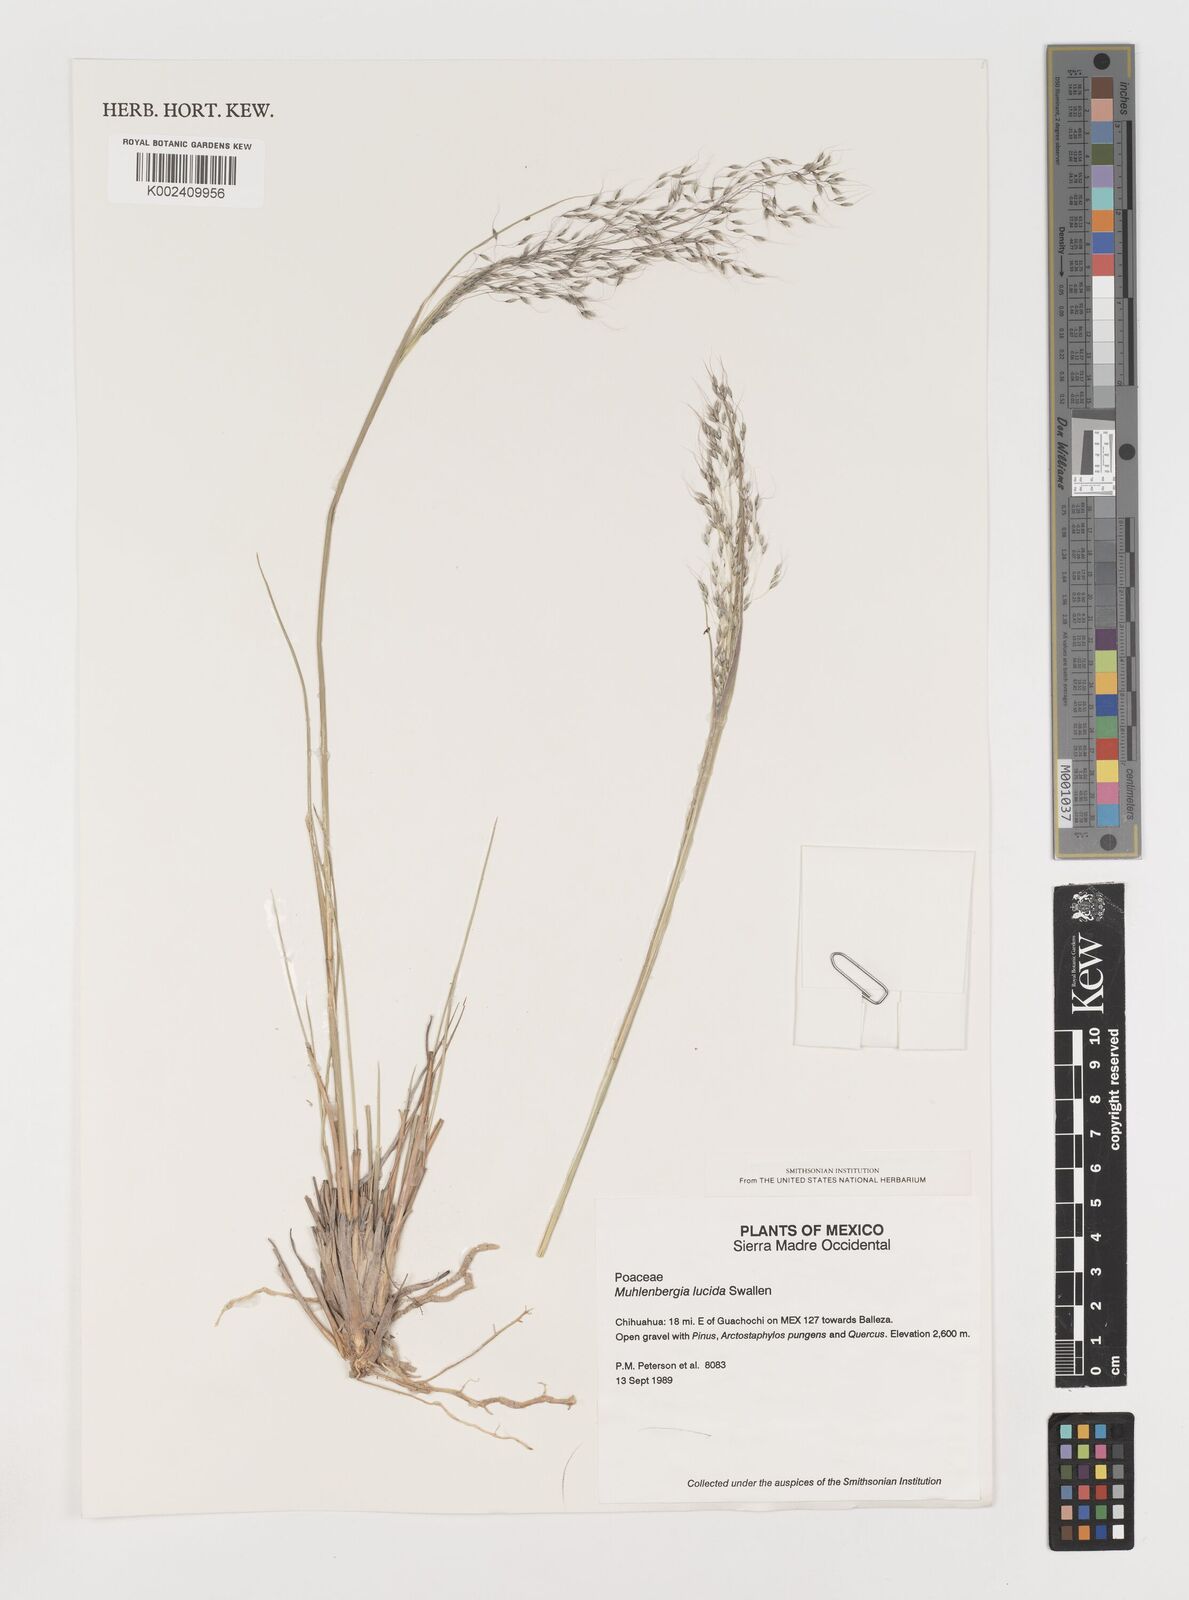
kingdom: Plantae
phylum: Tracheophyta
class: Liliopsida
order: Poales
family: Poaceae
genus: Muhlenbergia
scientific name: Muhlenbergia lucida
